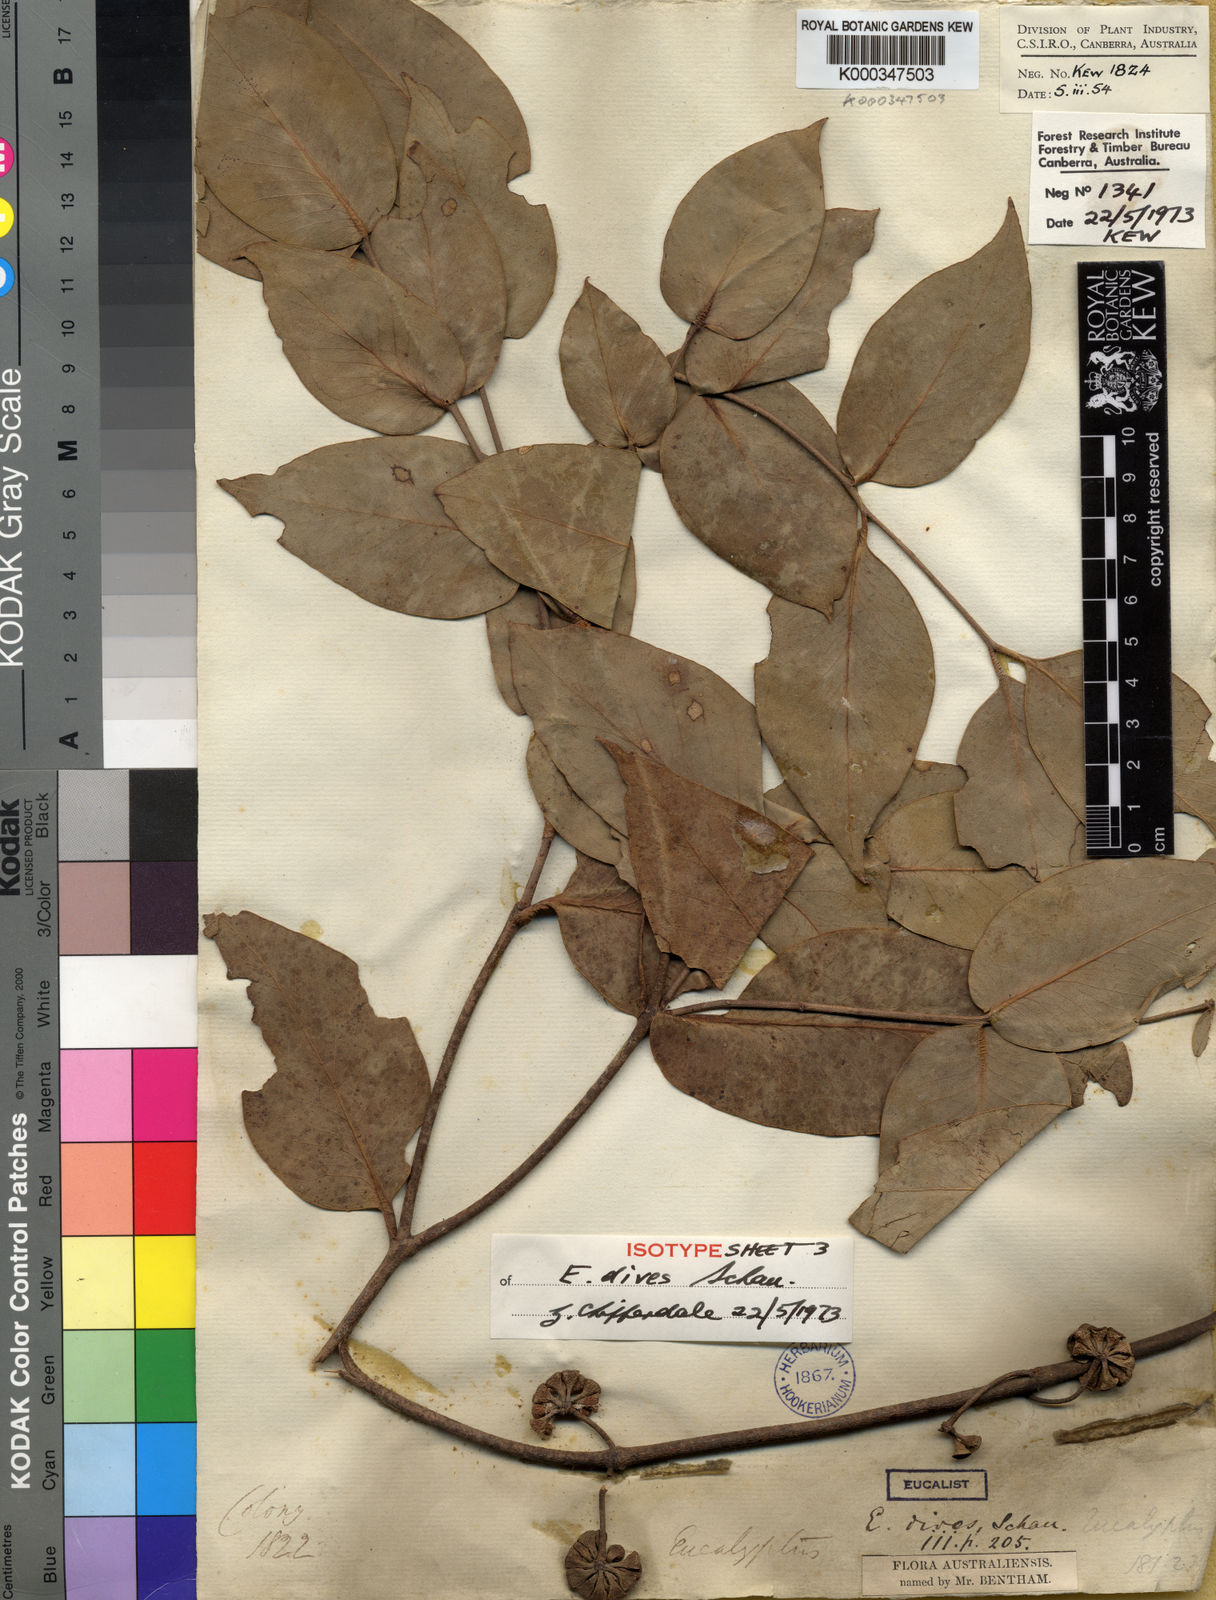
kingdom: Plantae
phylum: Tracheophyta
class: Magnoliopsida
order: Myrtales
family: Myrtaceae
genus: Eucalyptus
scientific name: Eucalyptus dives
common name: Blue peppermint
